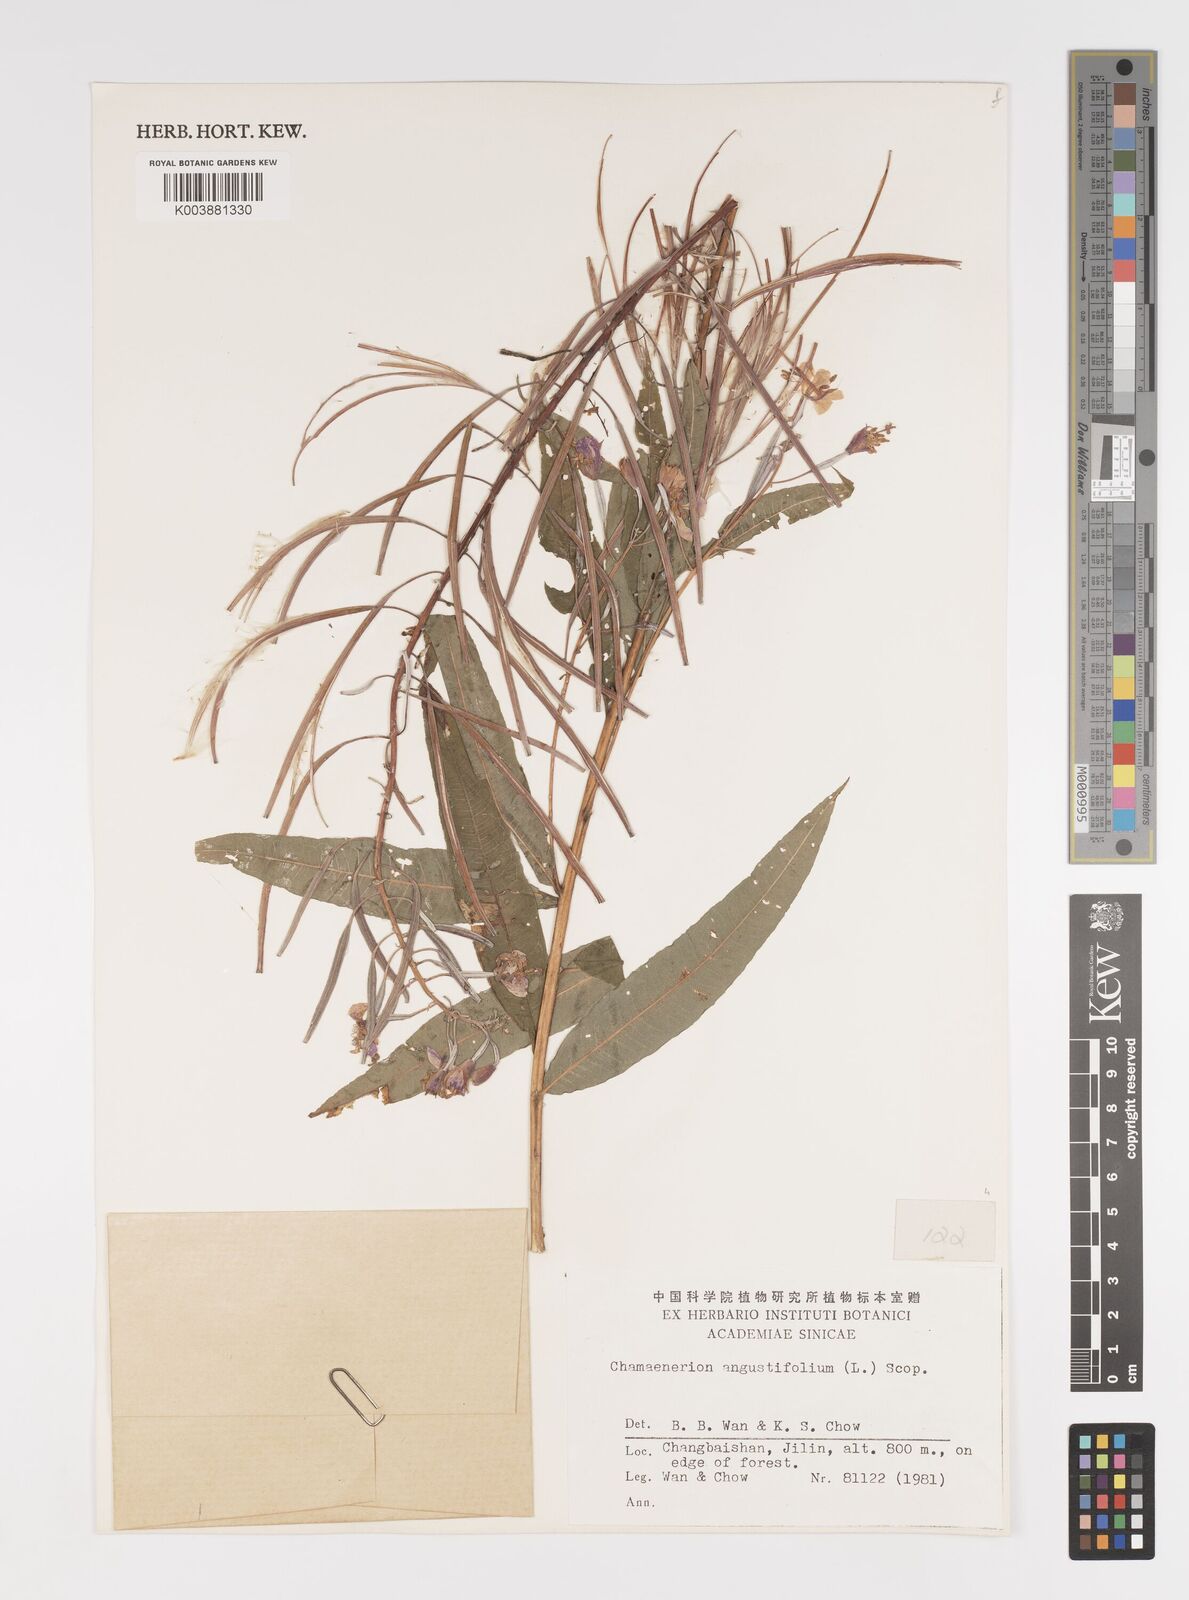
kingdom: Plantae
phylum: Tracheophyta
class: Magnoliopsida
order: Myrtales
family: Onagraceae
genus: Chamaenerion
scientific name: Chamaenerion angustifolium
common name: Fireweed
